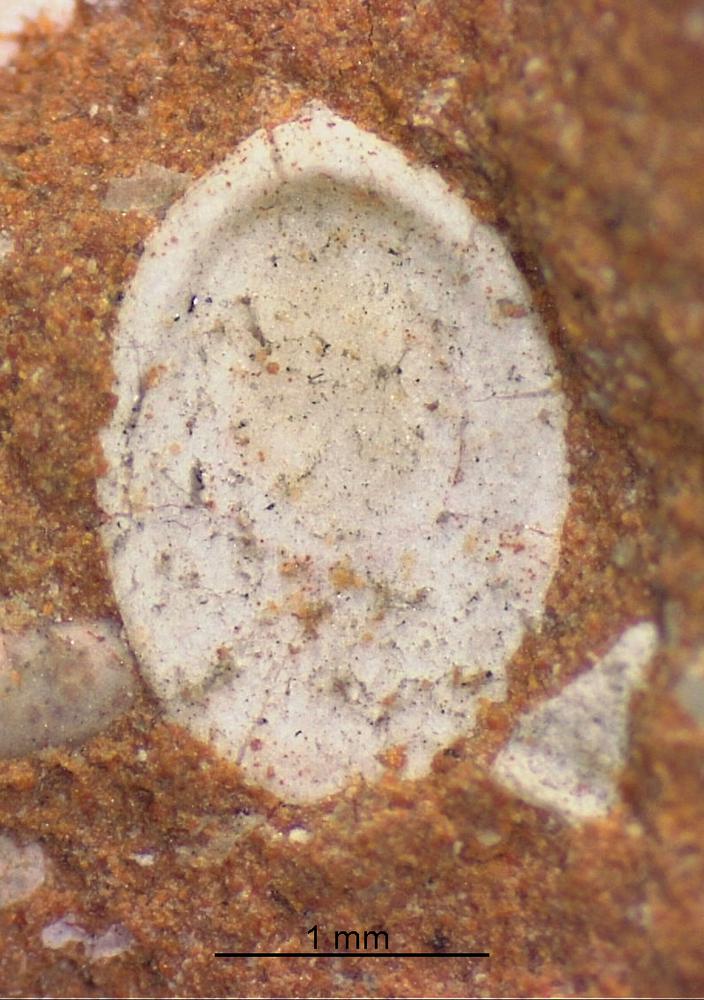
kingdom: Animalia
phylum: Brachiopoda
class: Craniata
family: Craniopsidae
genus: Pseudopholidops
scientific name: Pseudopholidops
